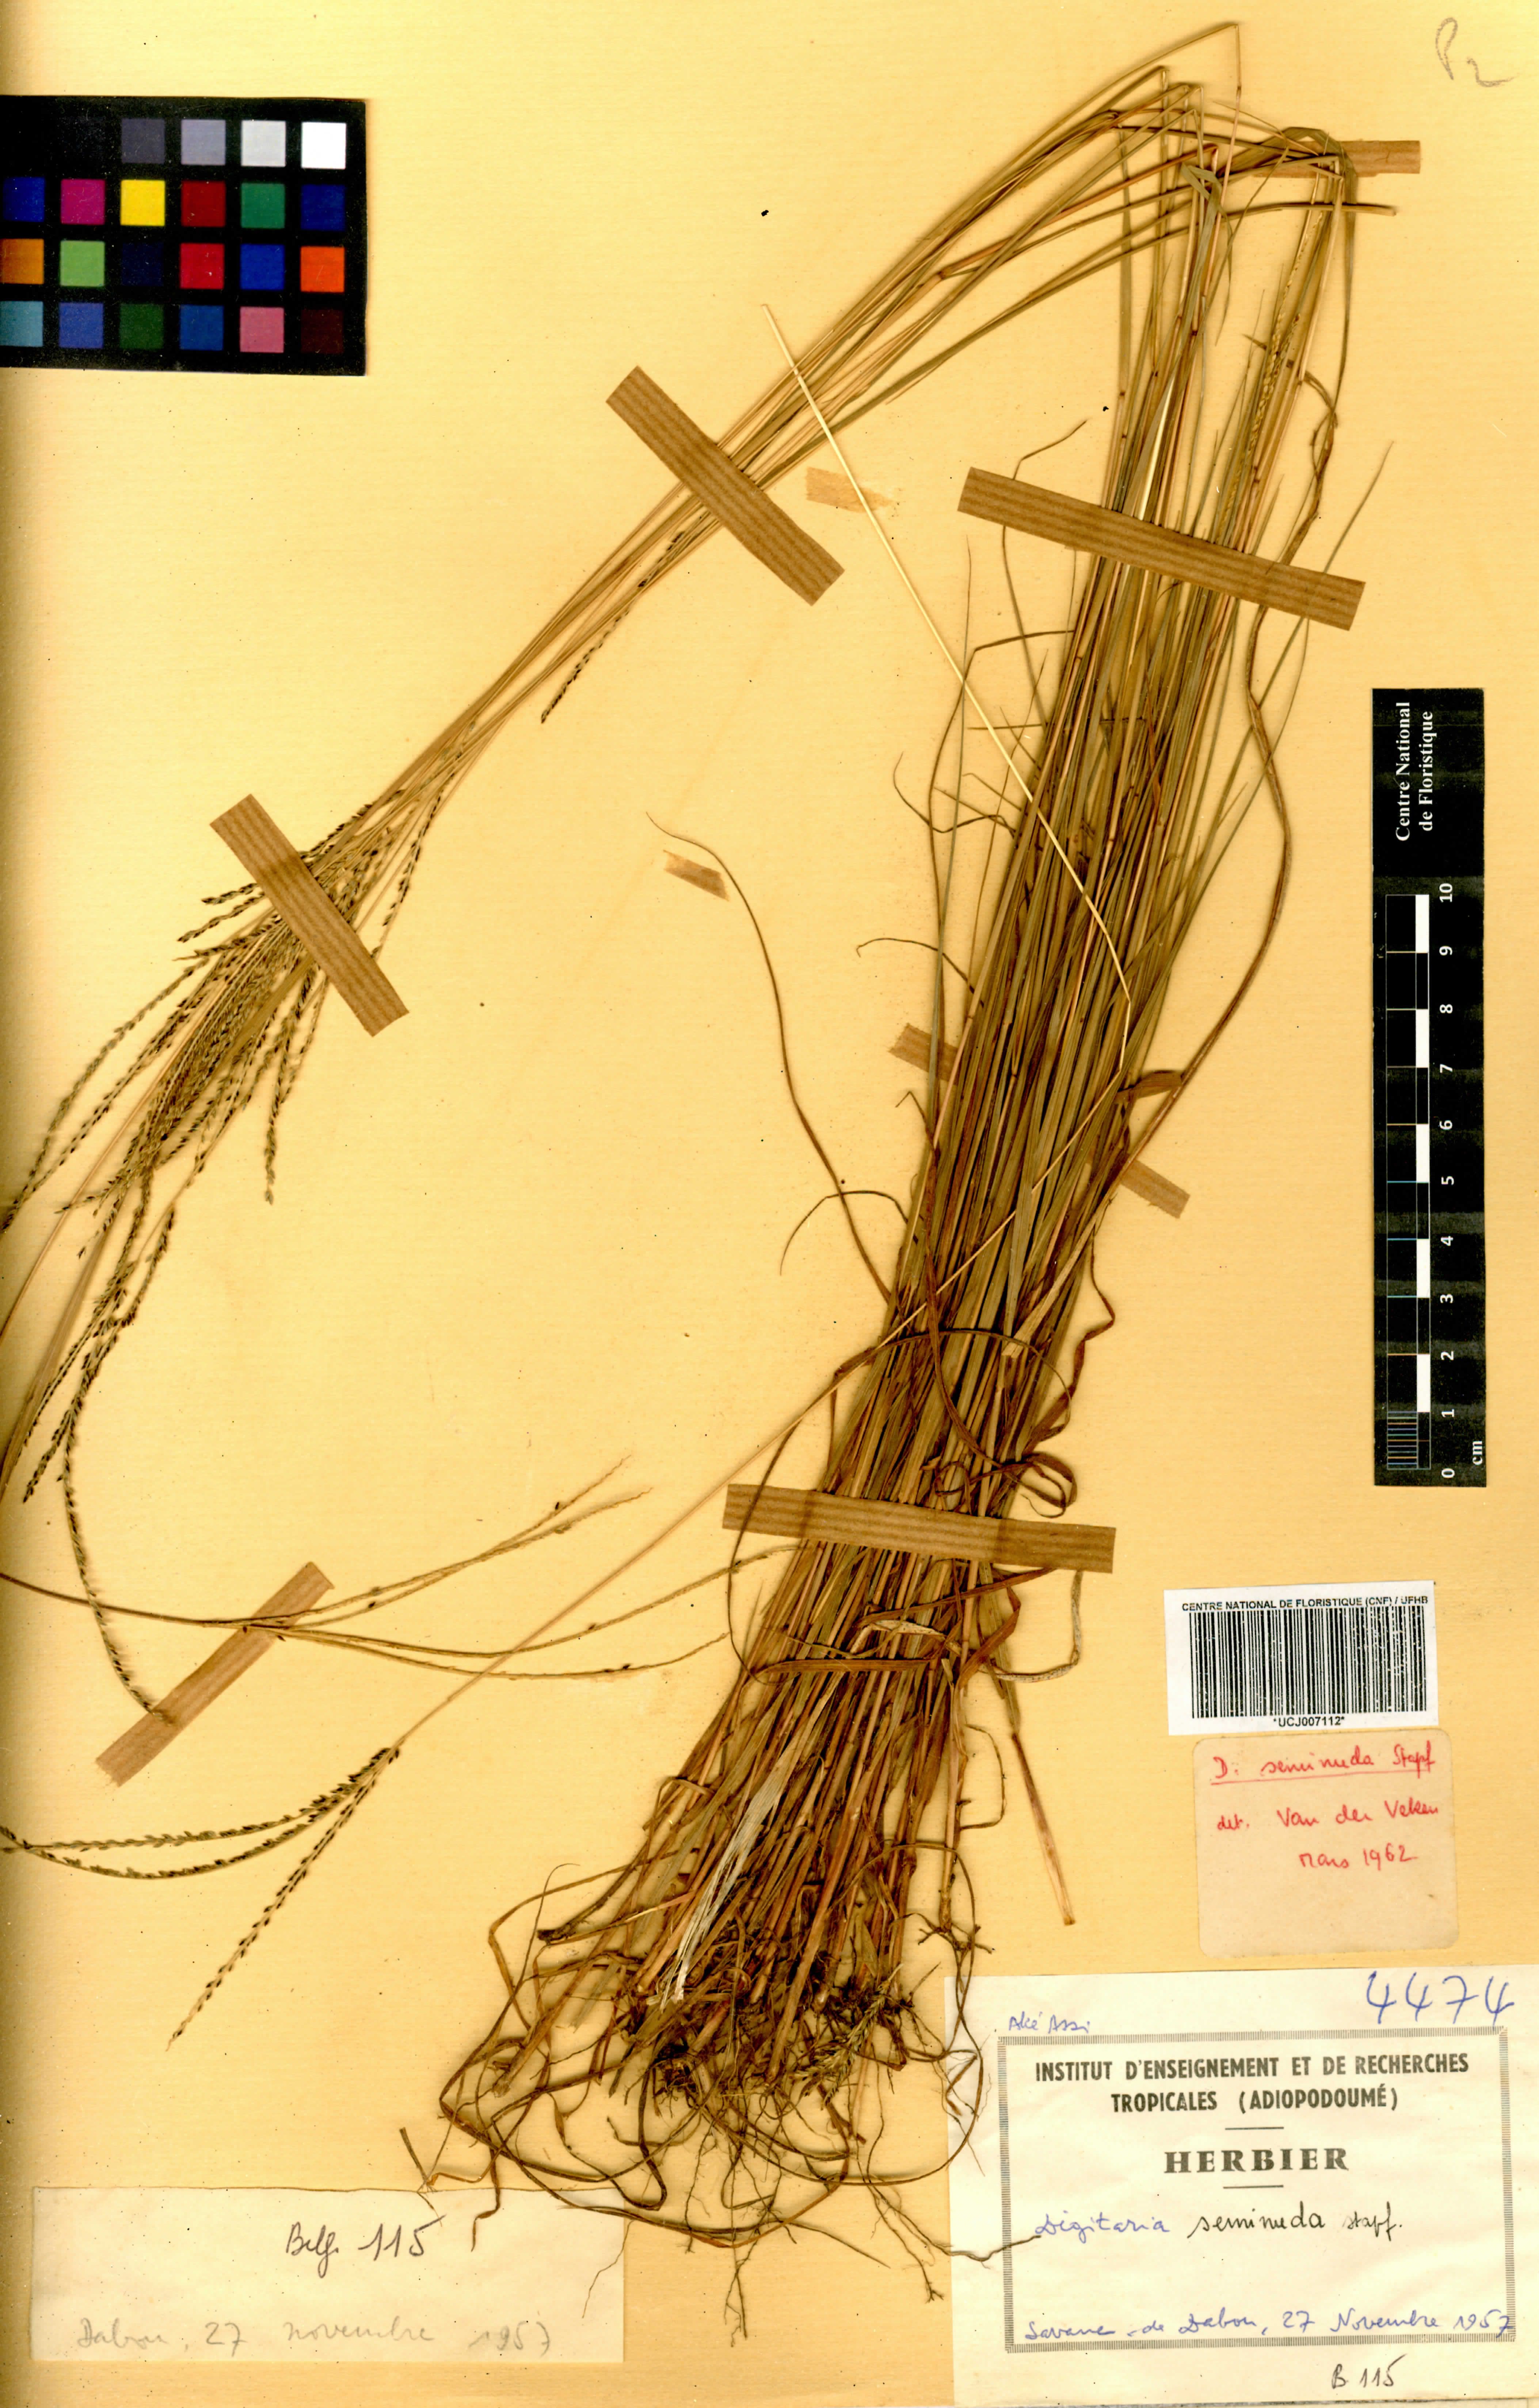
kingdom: Plantae
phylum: Tracheophyta
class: Liliopsida
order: Poales
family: Poaceae
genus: Digitaria
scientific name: Digitaria atrofusca
